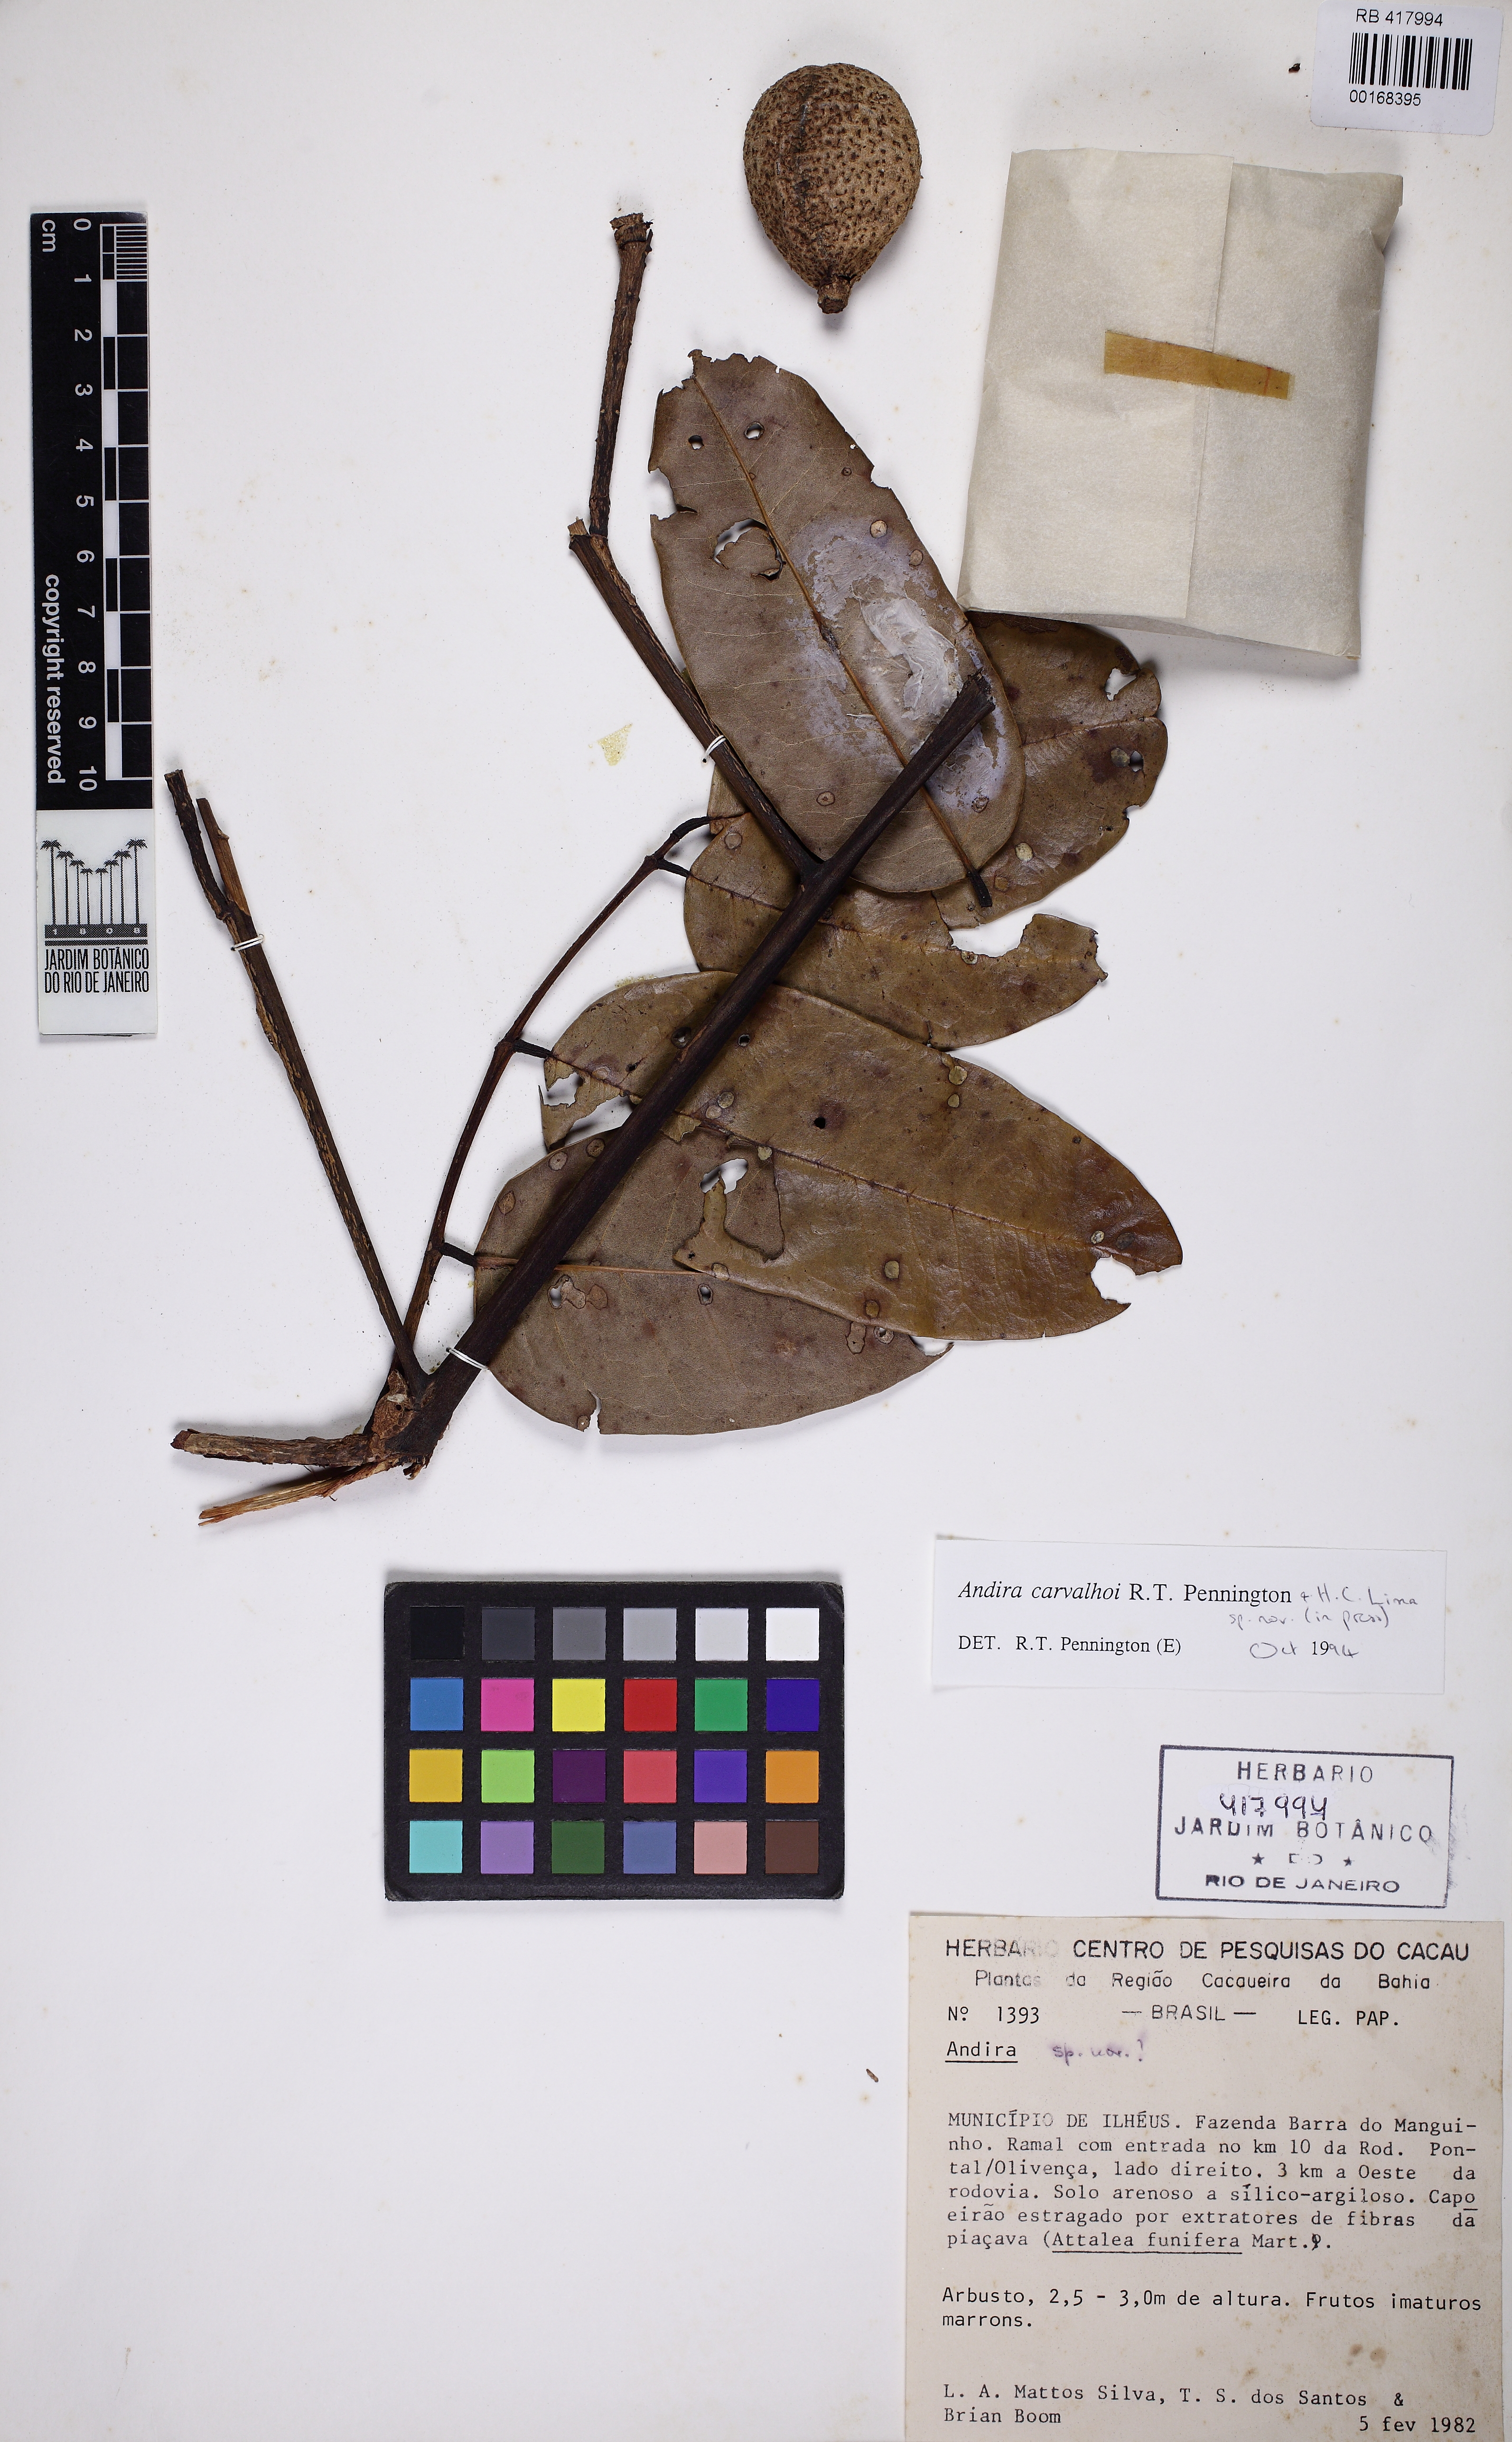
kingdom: Plantae
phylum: Tracheophyta
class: Magnoliopsida
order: Fabales
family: Fabaceae
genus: Andira
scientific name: Andira carvalhoi
